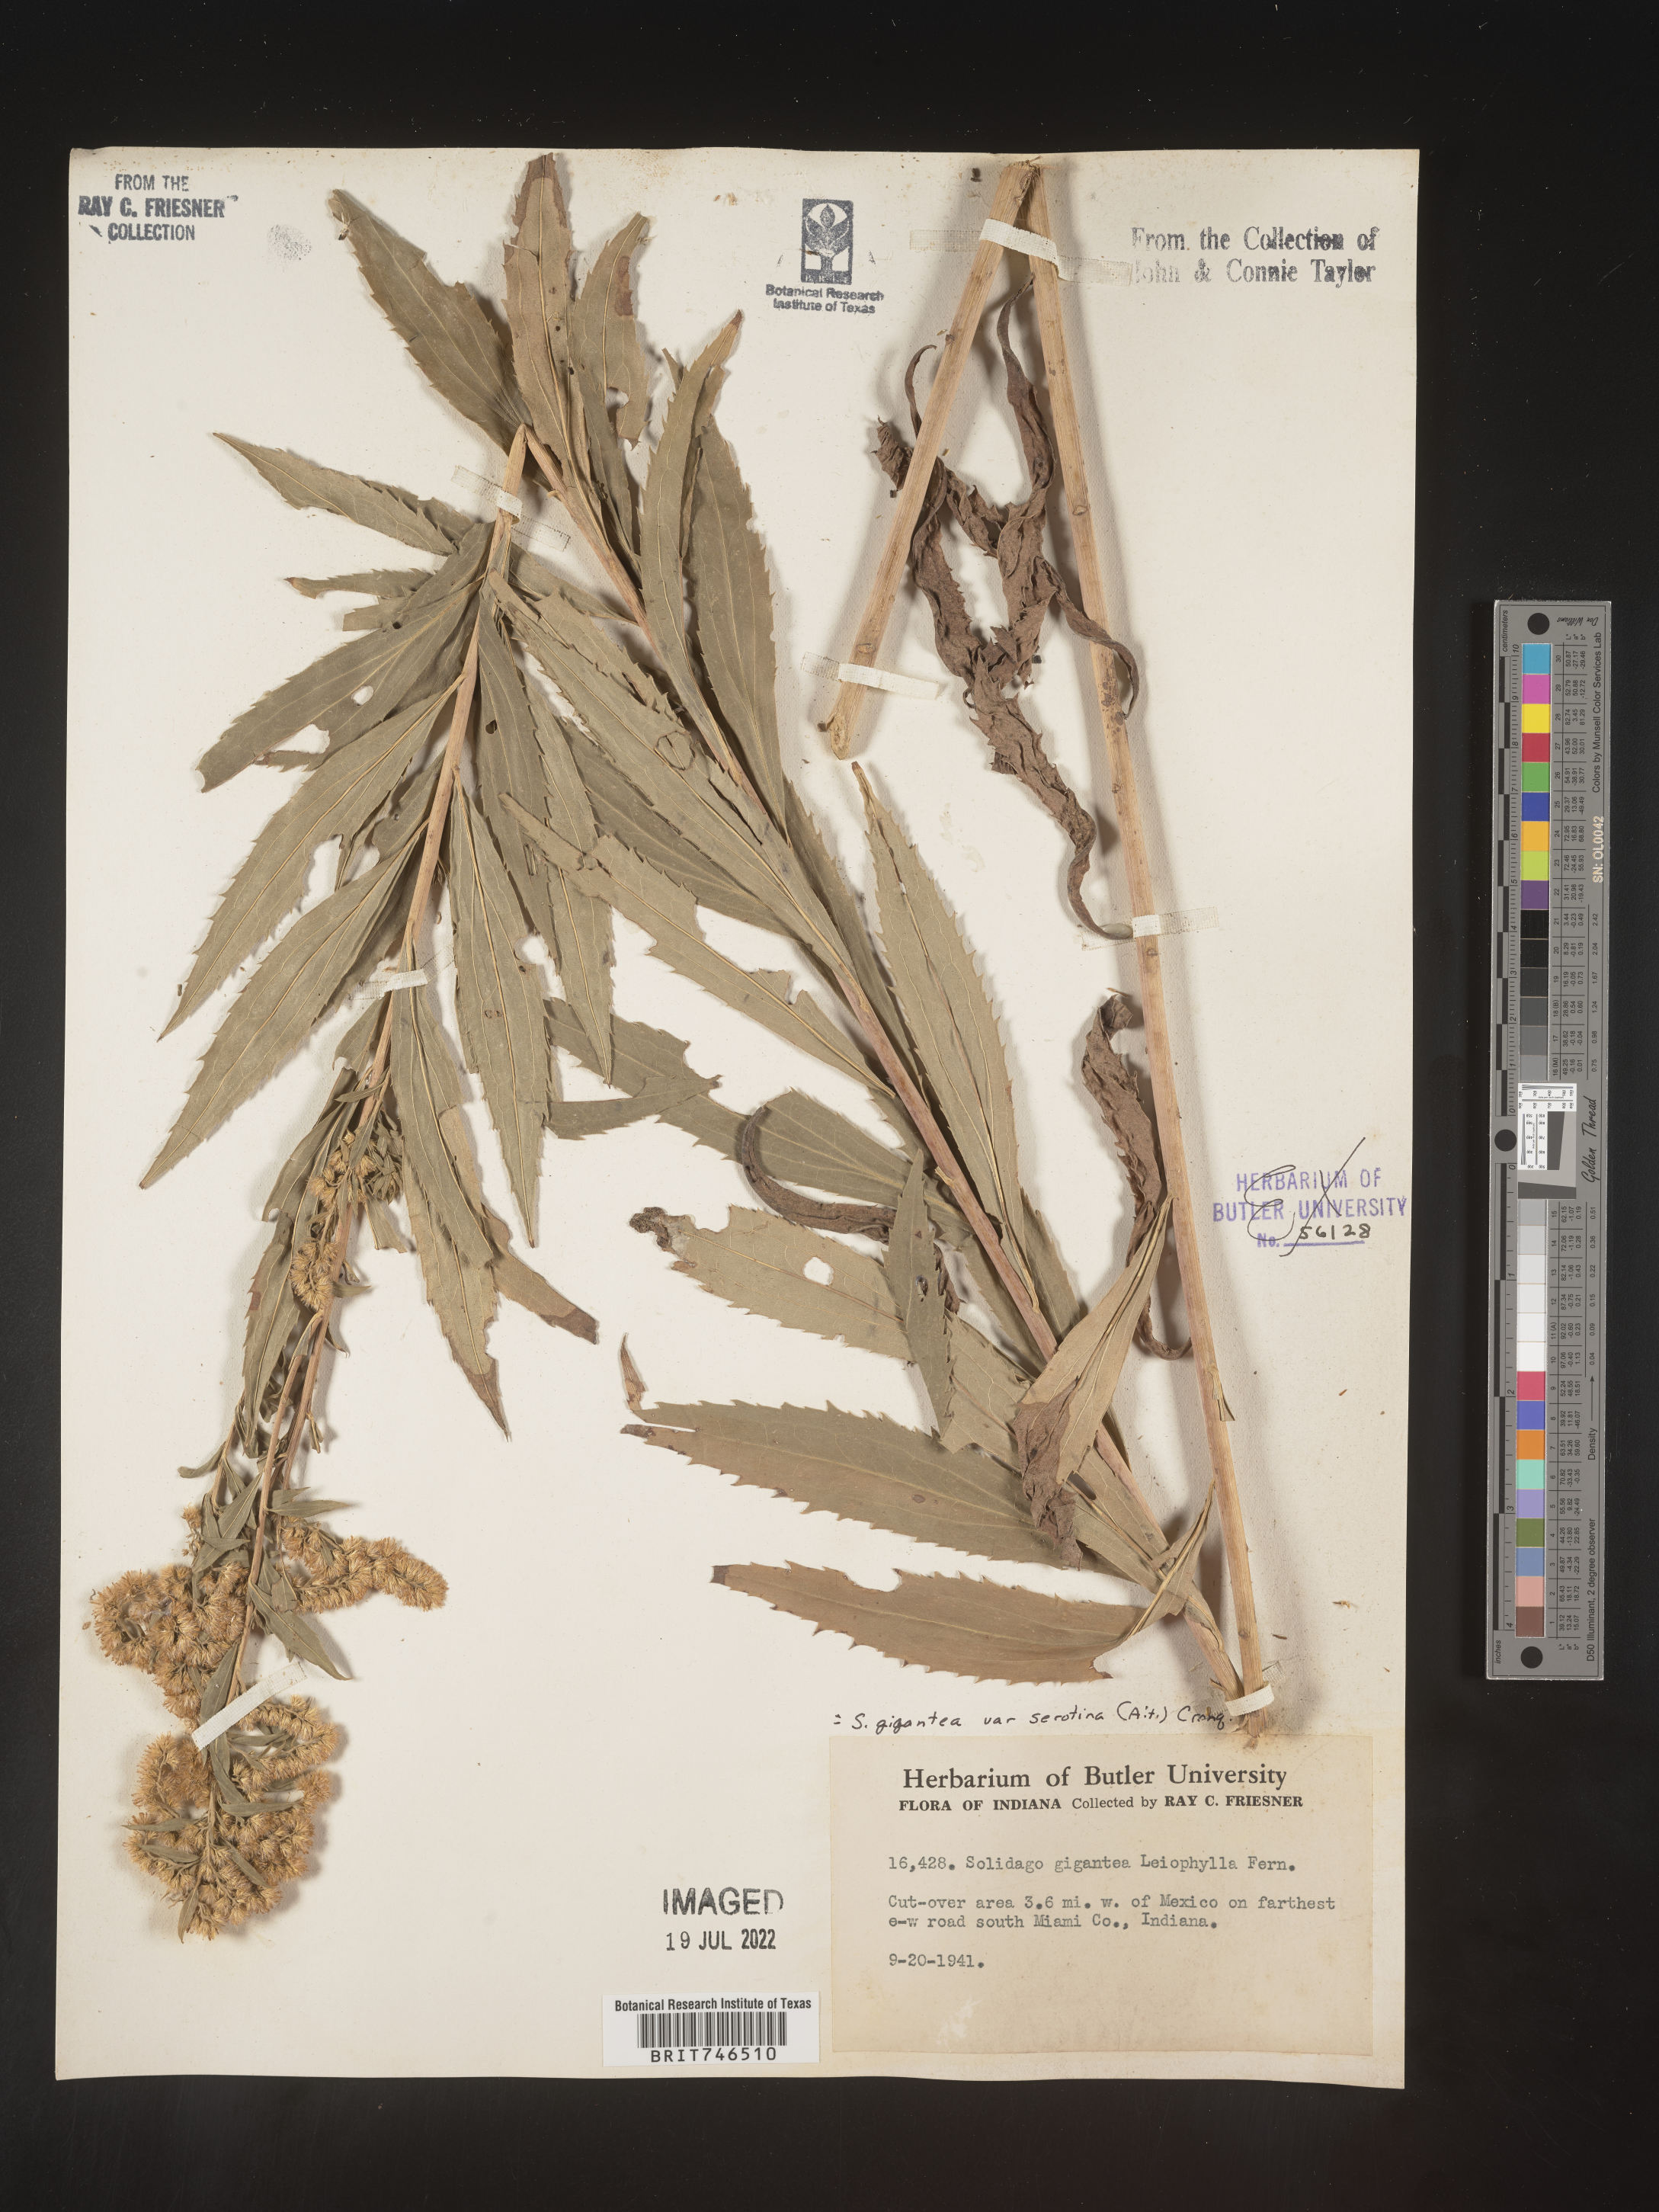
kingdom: Plantae
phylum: Tracheophyta
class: Magnoliopsida
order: Asterales
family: Asteraceae
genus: Solidago
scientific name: Solidago gigantea
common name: Giant goldenrod
